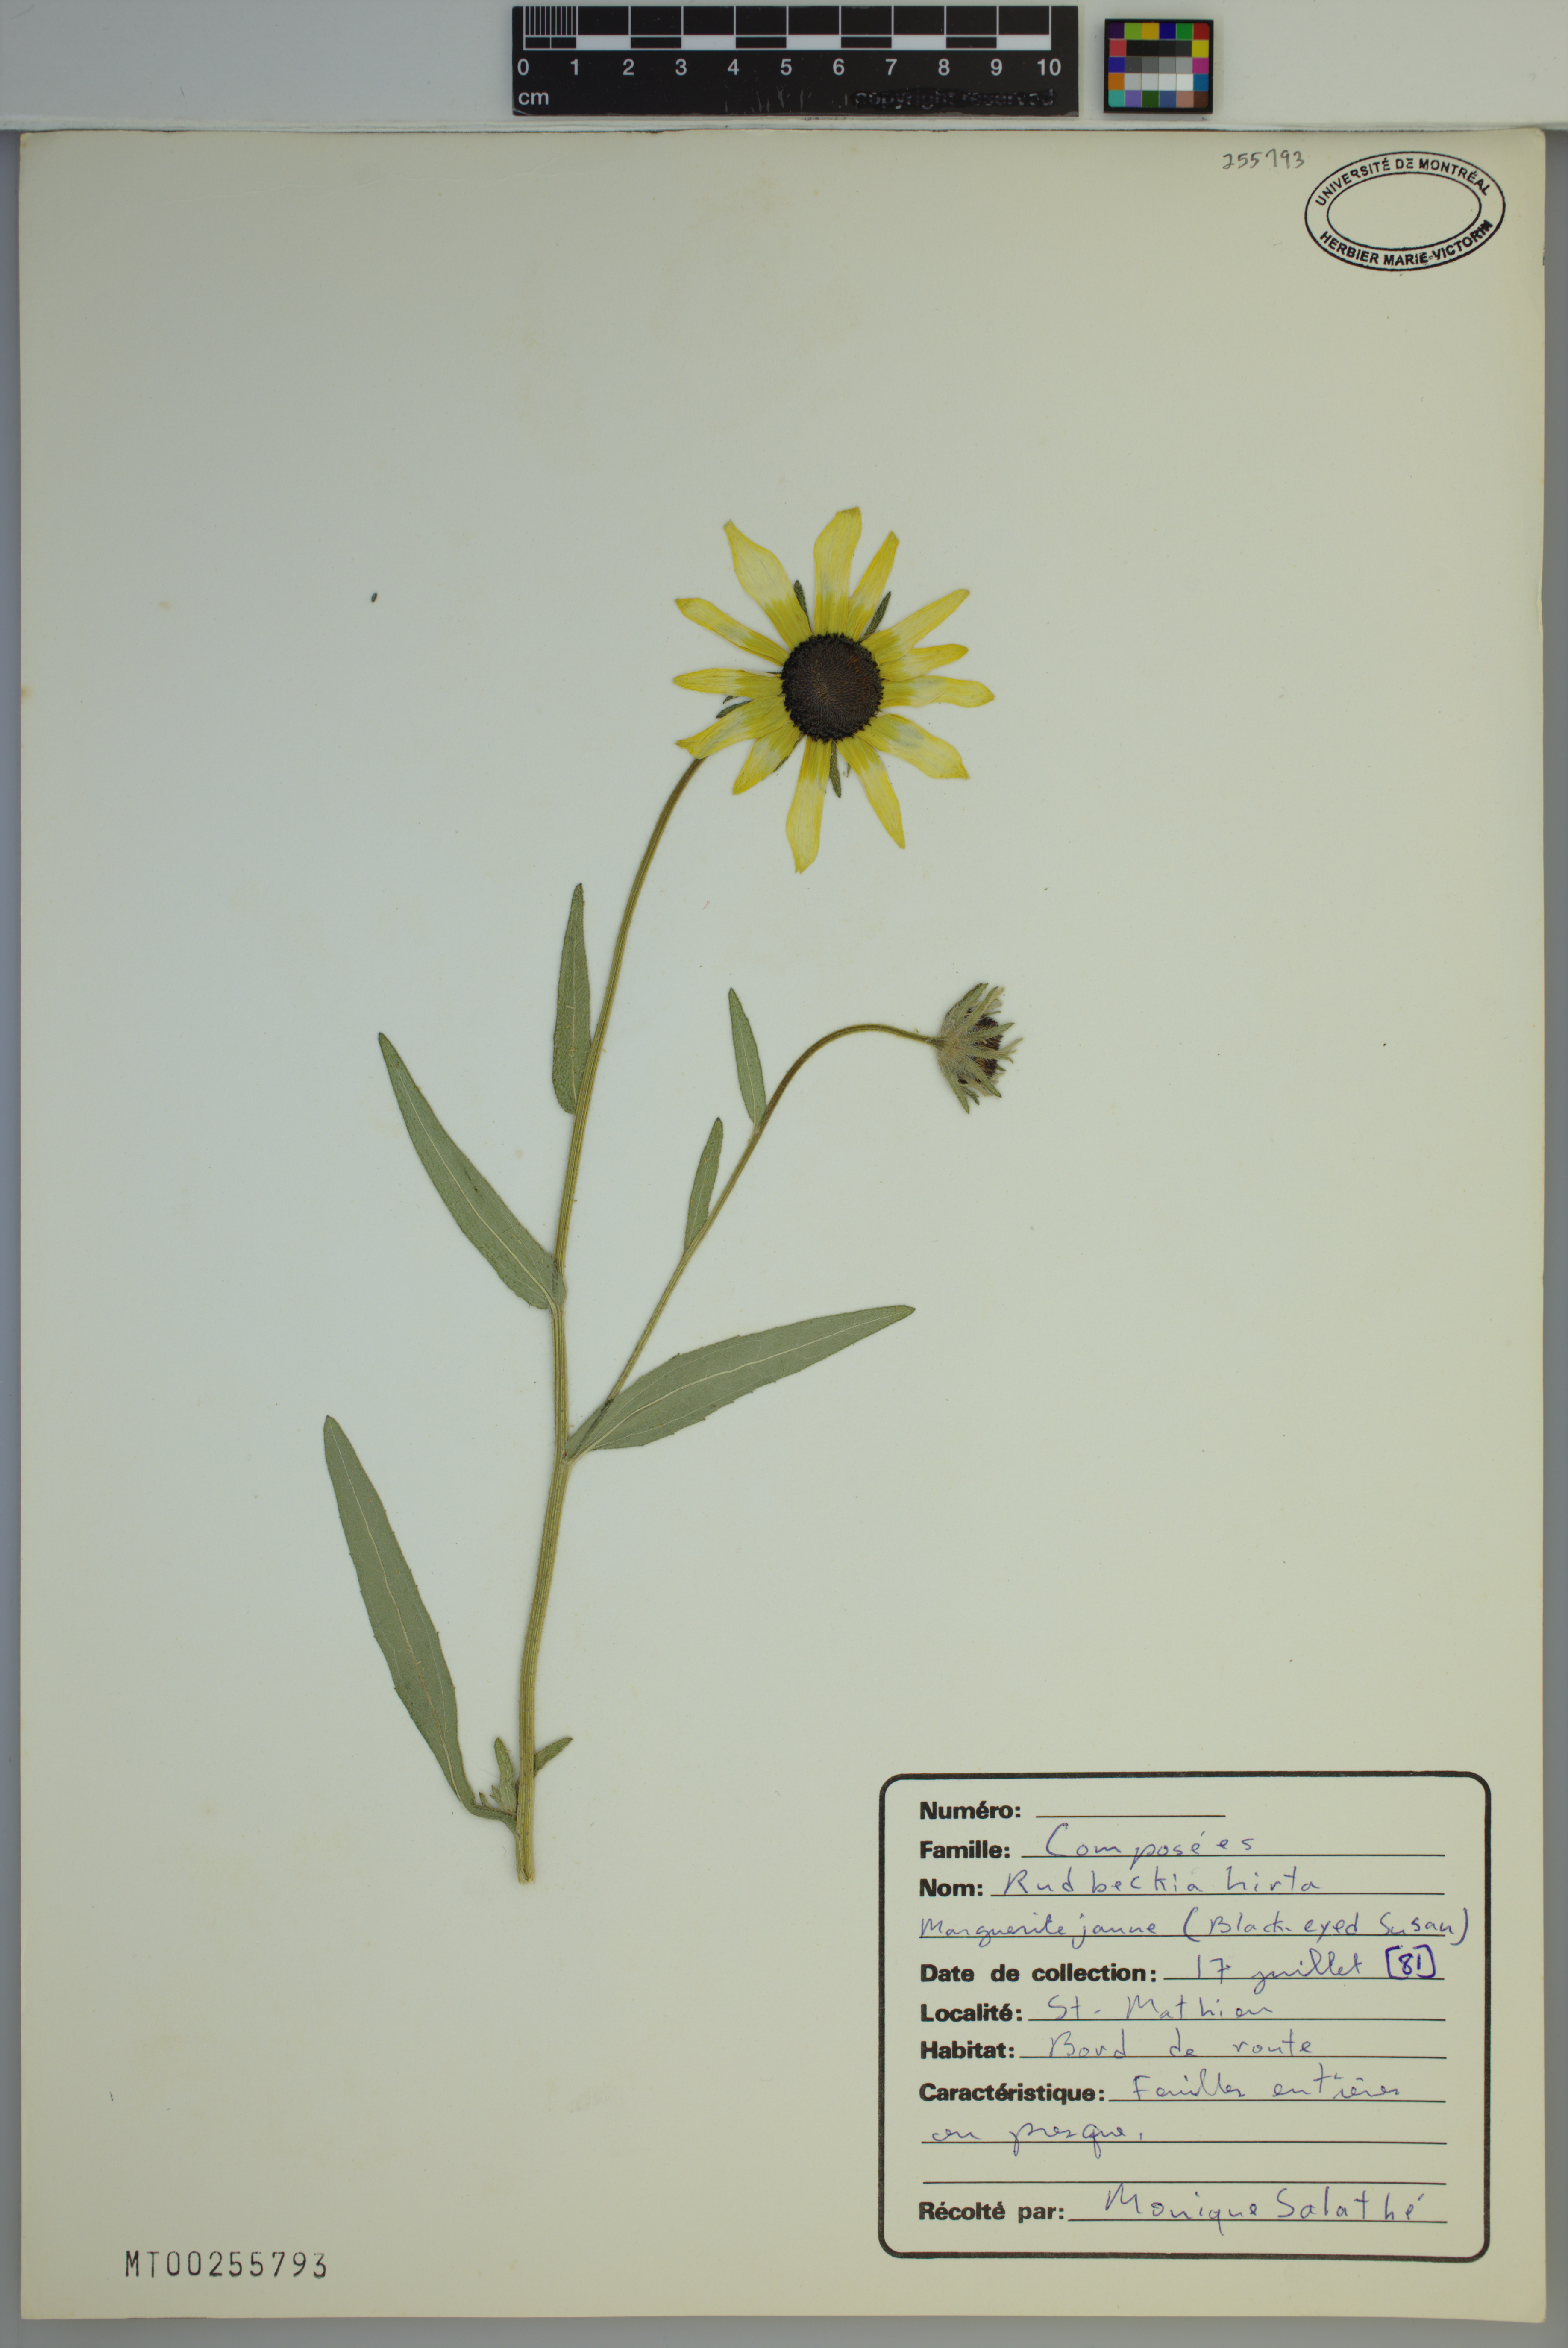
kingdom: Plantae
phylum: Tracheophyta
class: Magnoliopsida
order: Asterales
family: Asteraceae
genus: Rudbeckia
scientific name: Rudbeckia hirta
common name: Black-eyed-susan
